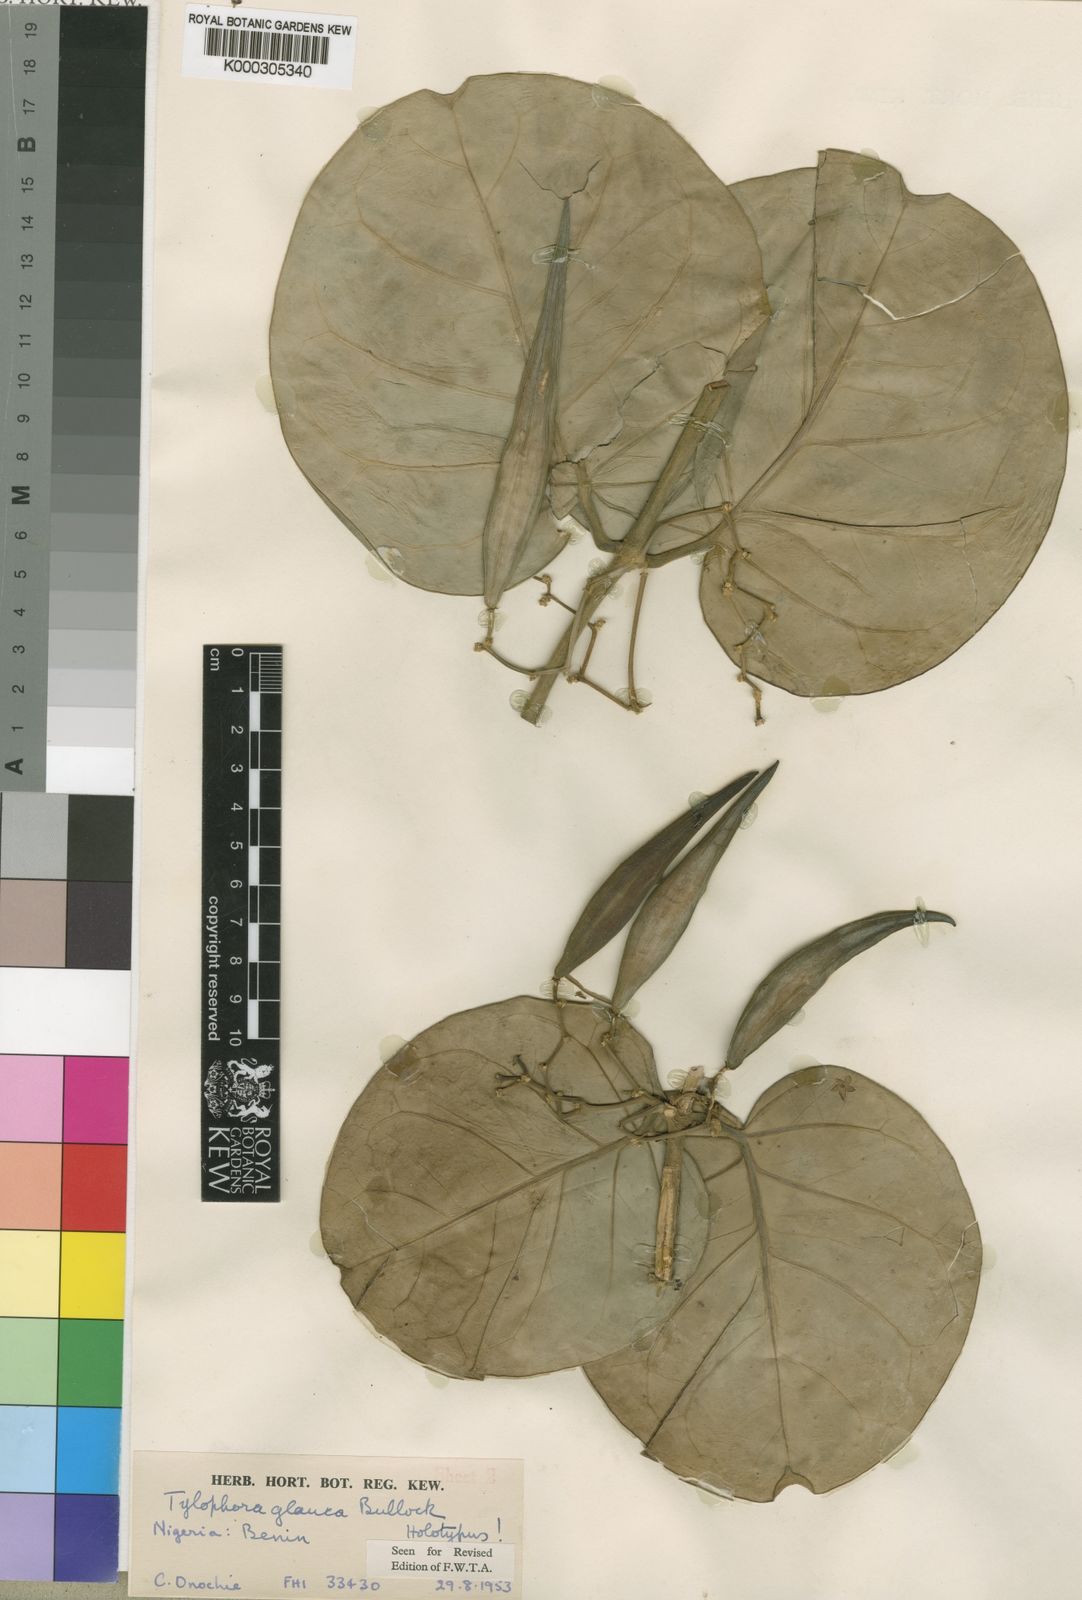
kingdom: Plantae
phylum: Tracheophyta
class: Magnoliopsida
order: Gentianales
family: Apocynaceae
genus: Vincetoxicum
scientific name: Vincetoxicum cameroonicum
